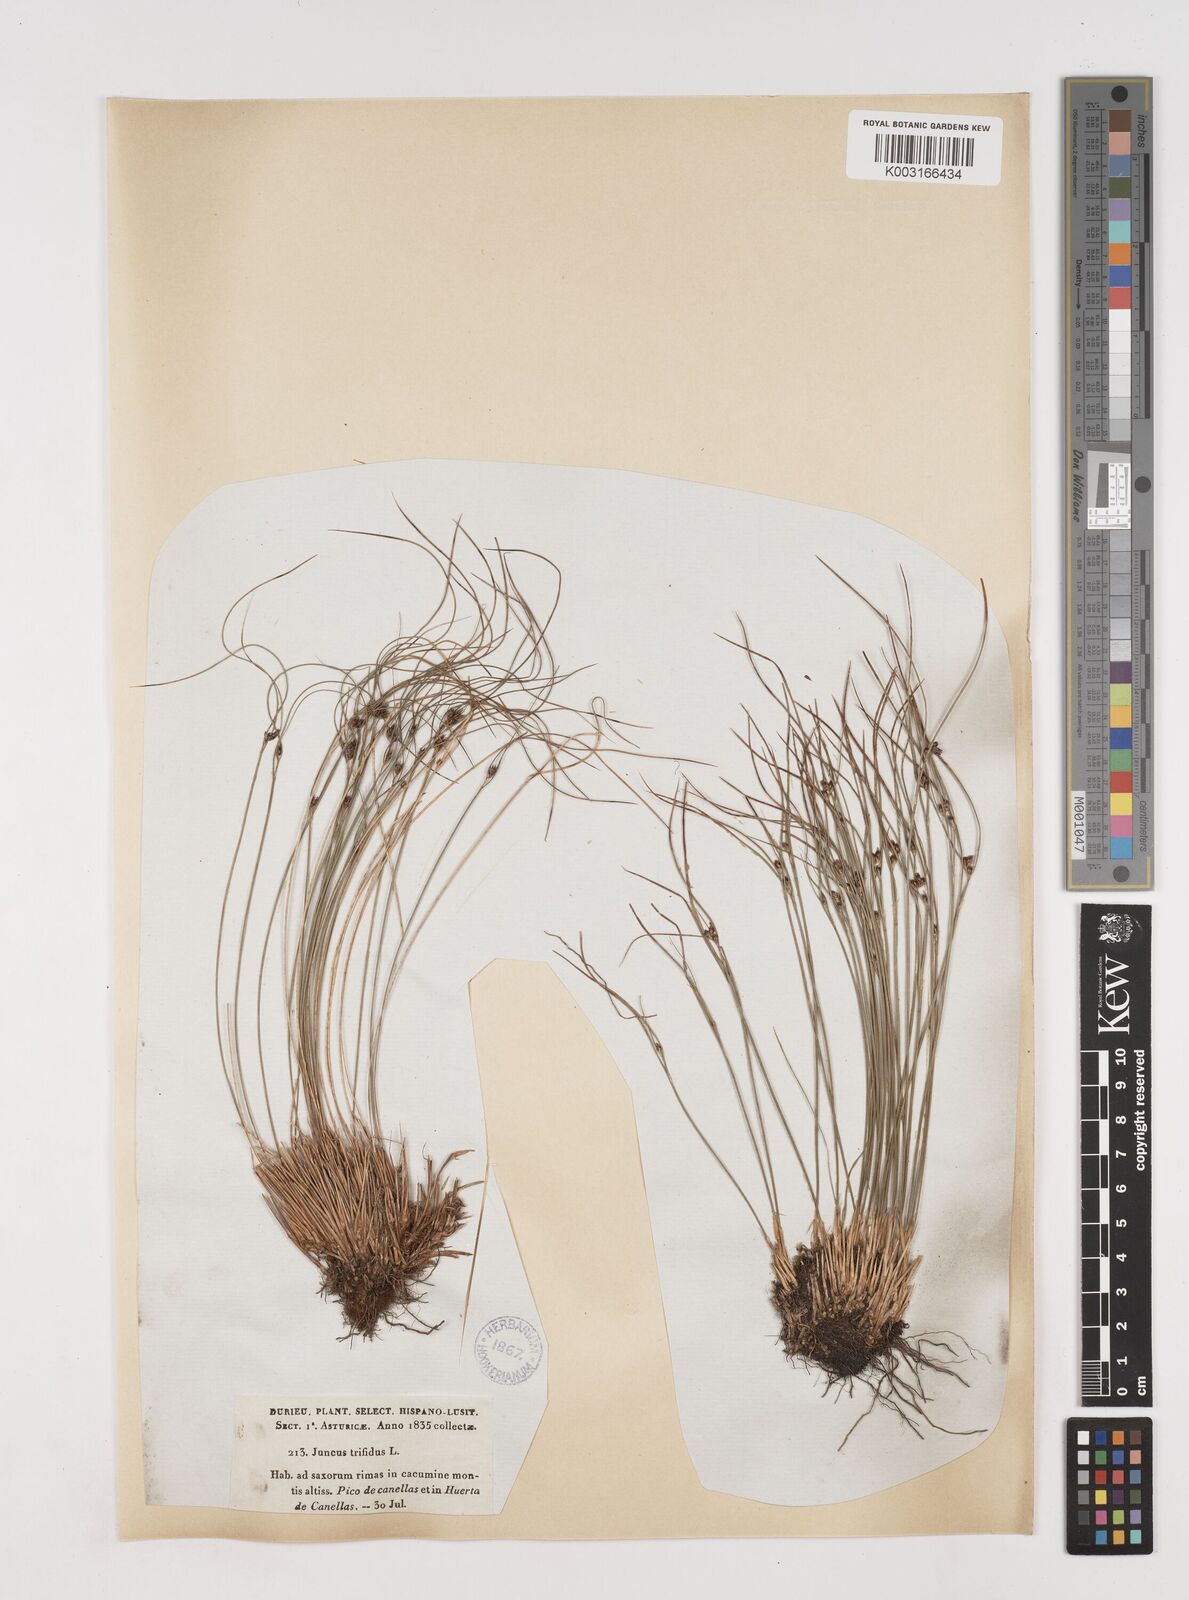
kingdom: Plantae
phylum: Tracheophyta
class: Liliopsida
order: Poales
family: Juncaceae
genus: Oreojuncus
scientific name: Oreojuncus trifidus
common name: Highland rush
